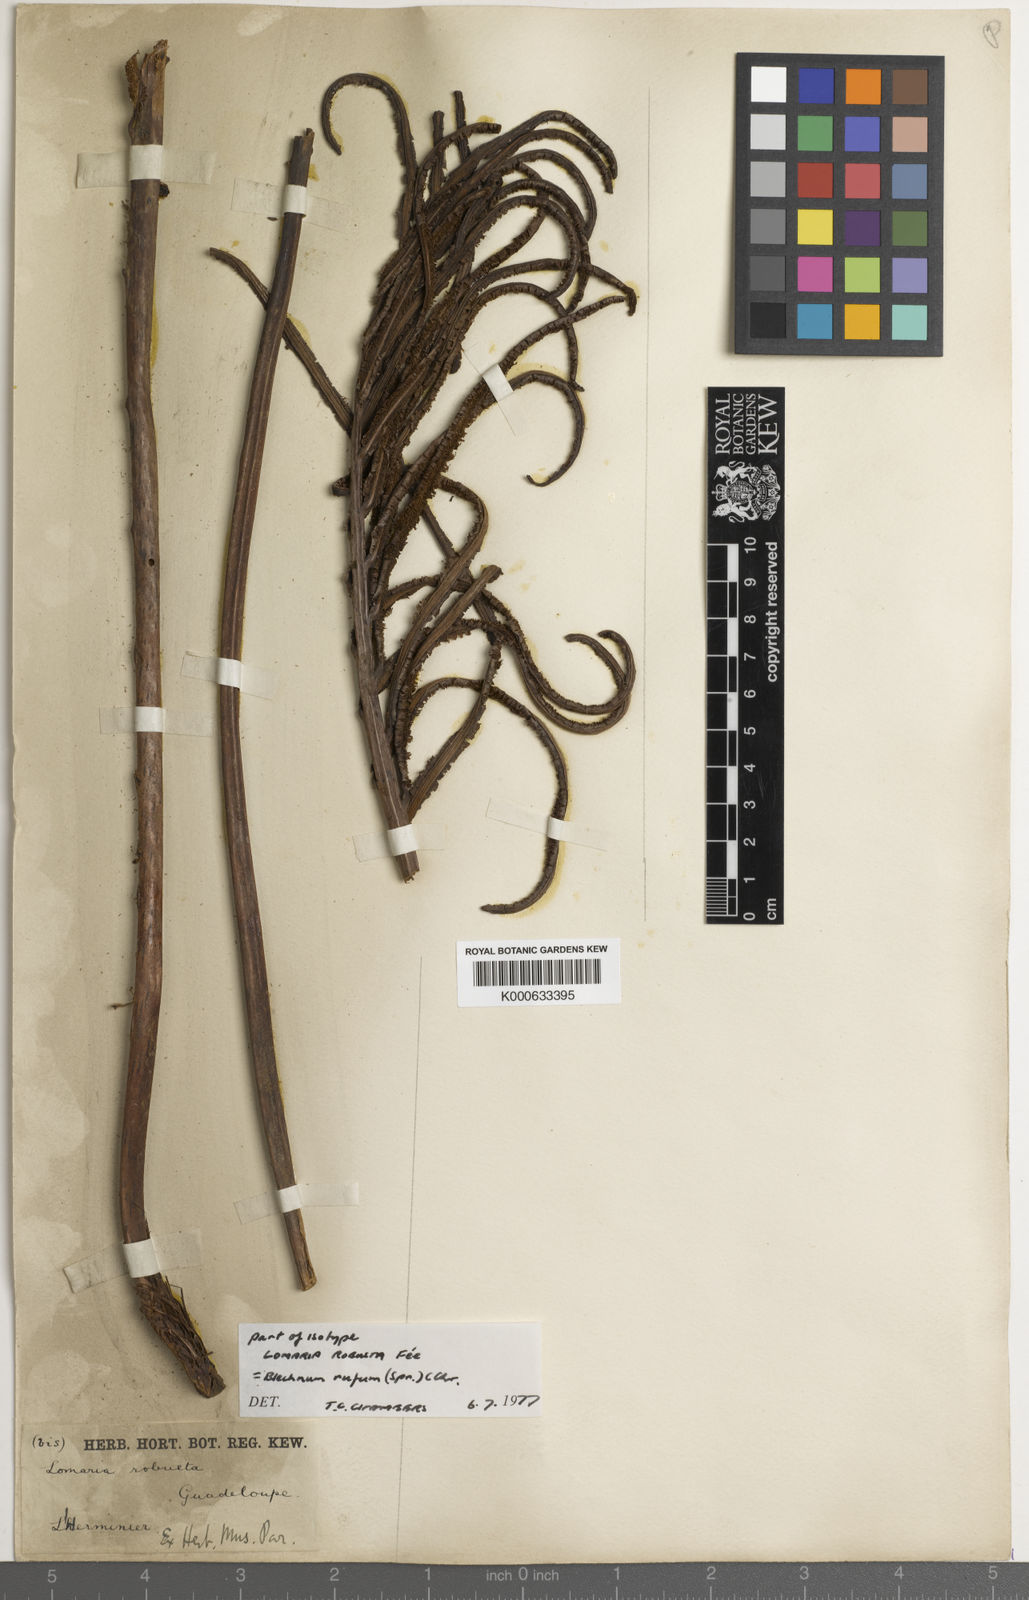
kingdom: Plantae
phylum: Tracheophyta
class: Polypodiopsida
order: Polypodiales
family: Blechnaceae
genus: Lomariocycas
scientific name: Lomariocycas rufa
